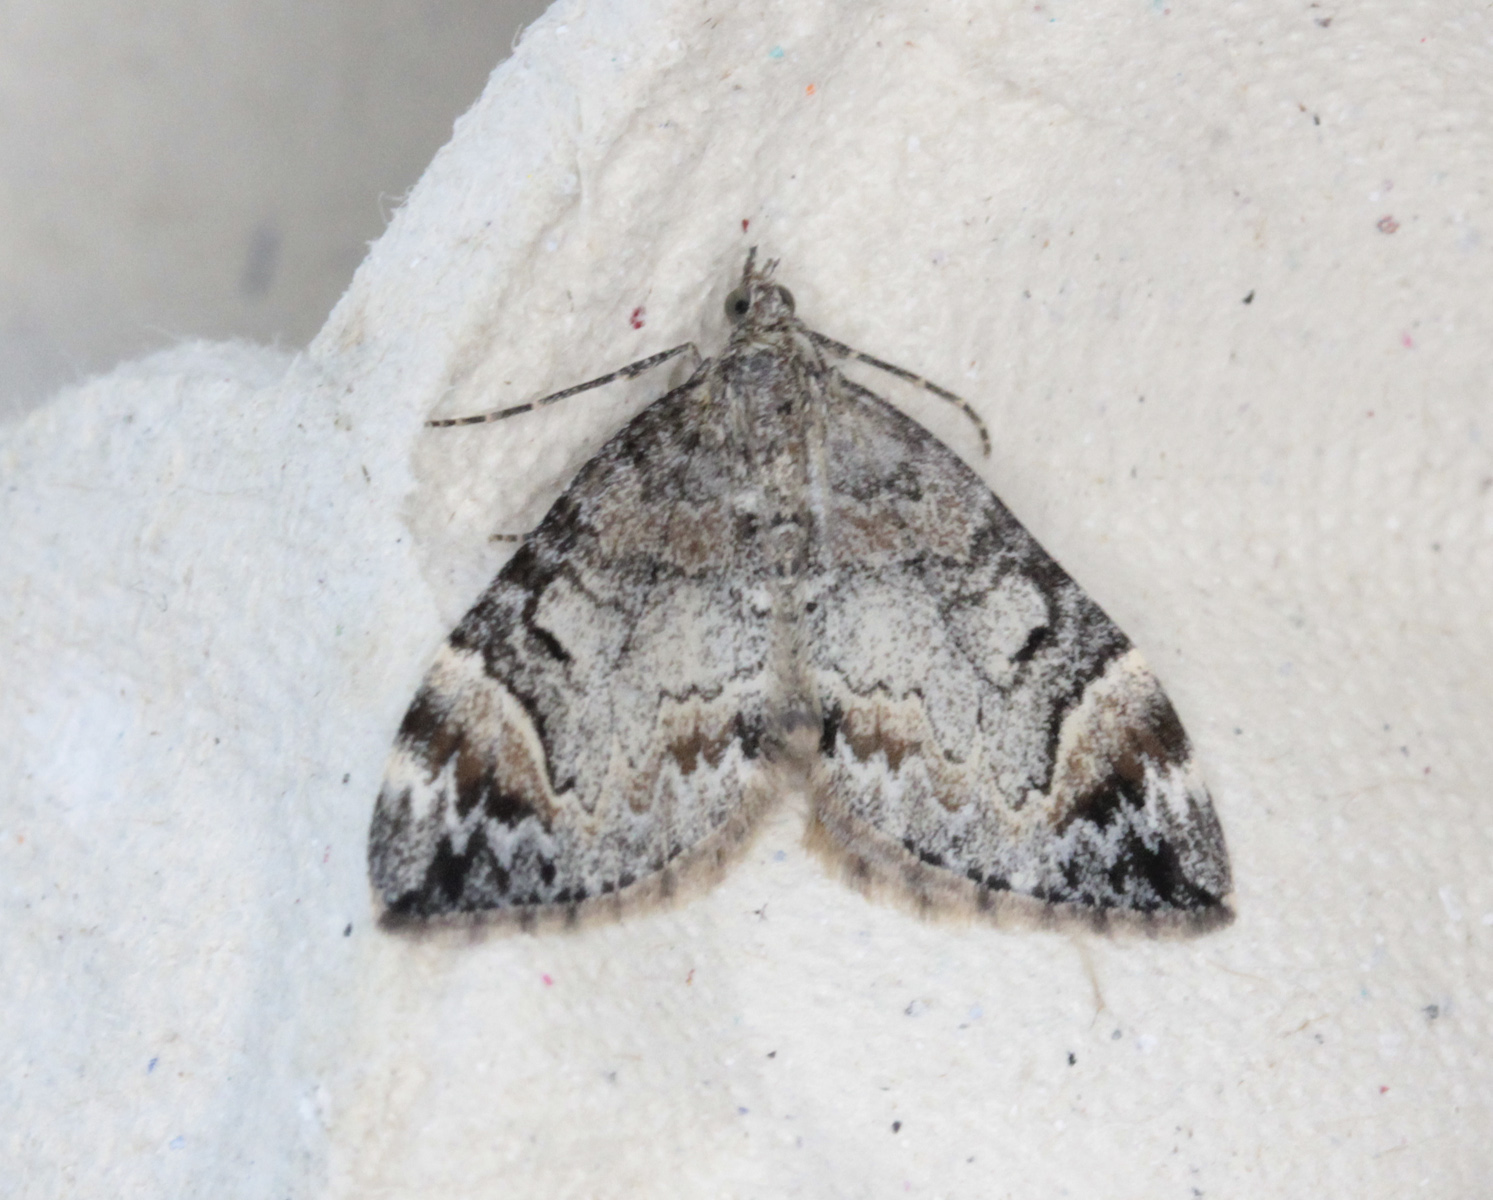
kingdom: Animalia
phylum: Arthropoda
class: Insecta
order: Lepidoptera
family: Geometridae
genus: Dysstroma
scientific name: Dysstroma citrata
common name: Dark marbled carpet
